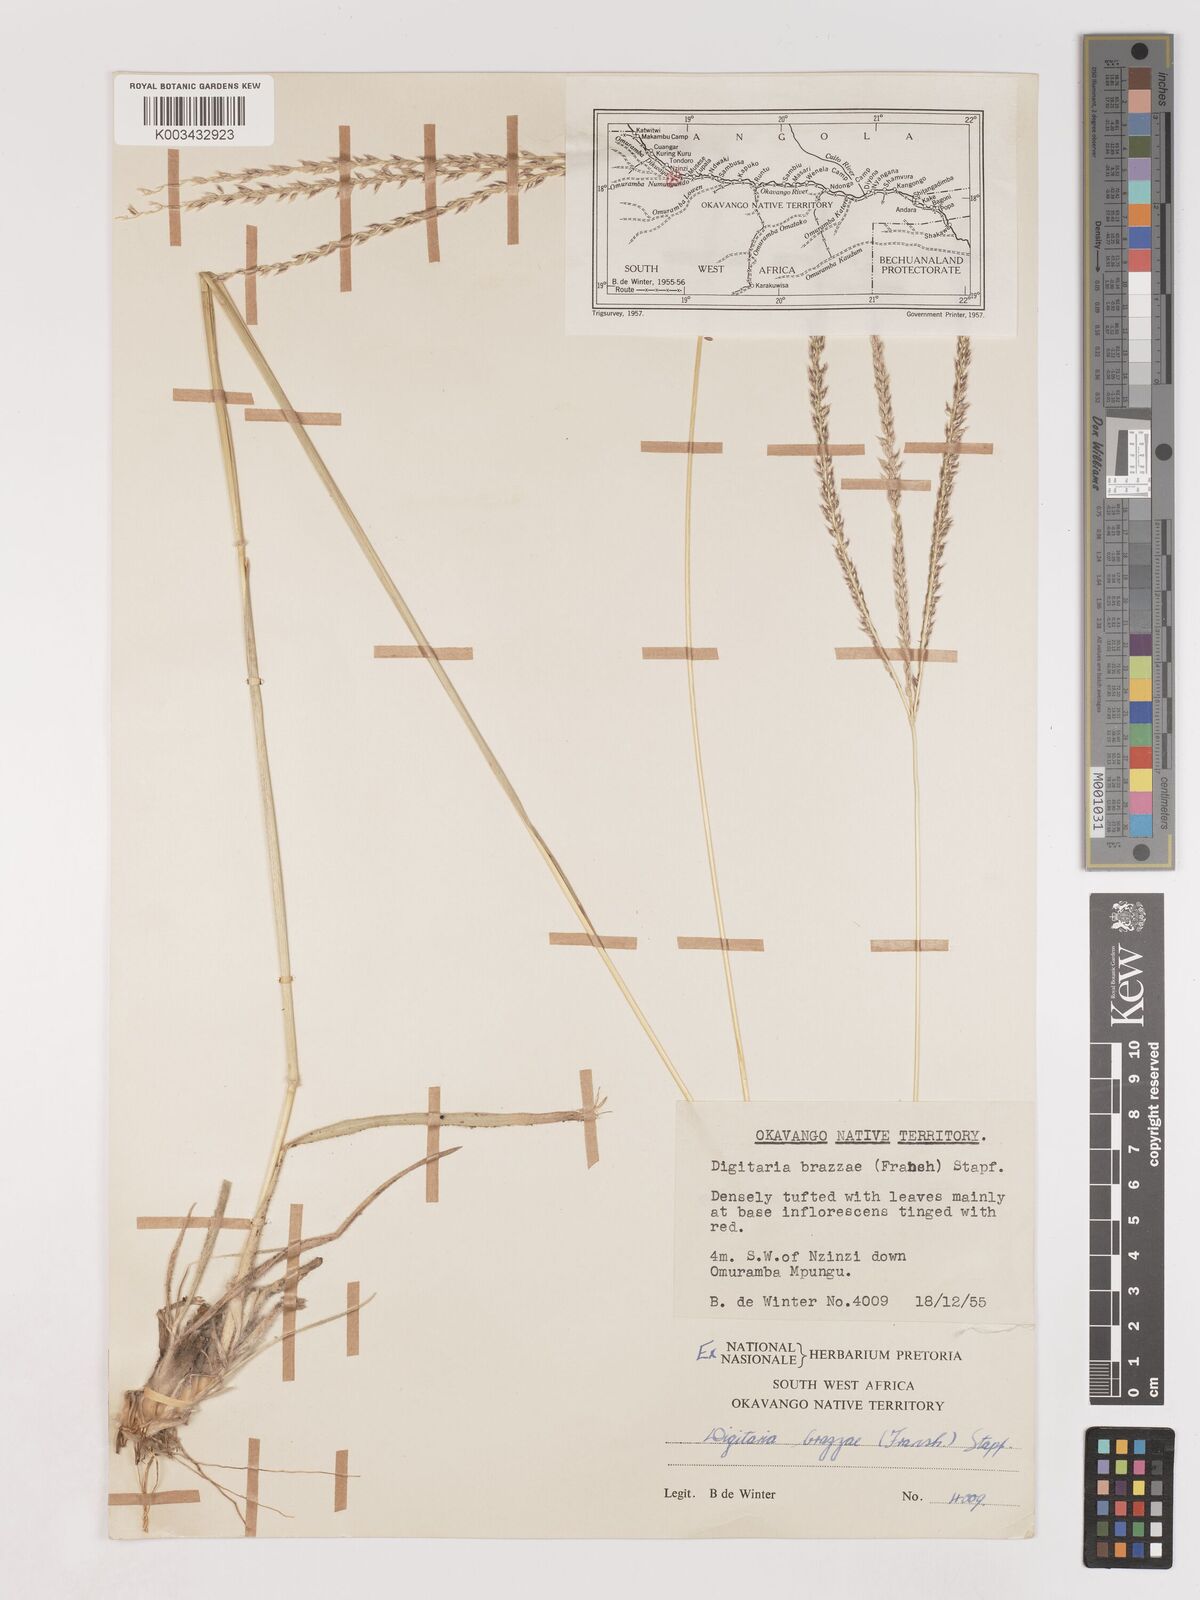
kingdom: Plantae
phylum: Tracheophyta
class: Liliopsida
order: Poales
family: Poaceae
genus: Digitaria
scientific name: Digitaria brazzae
